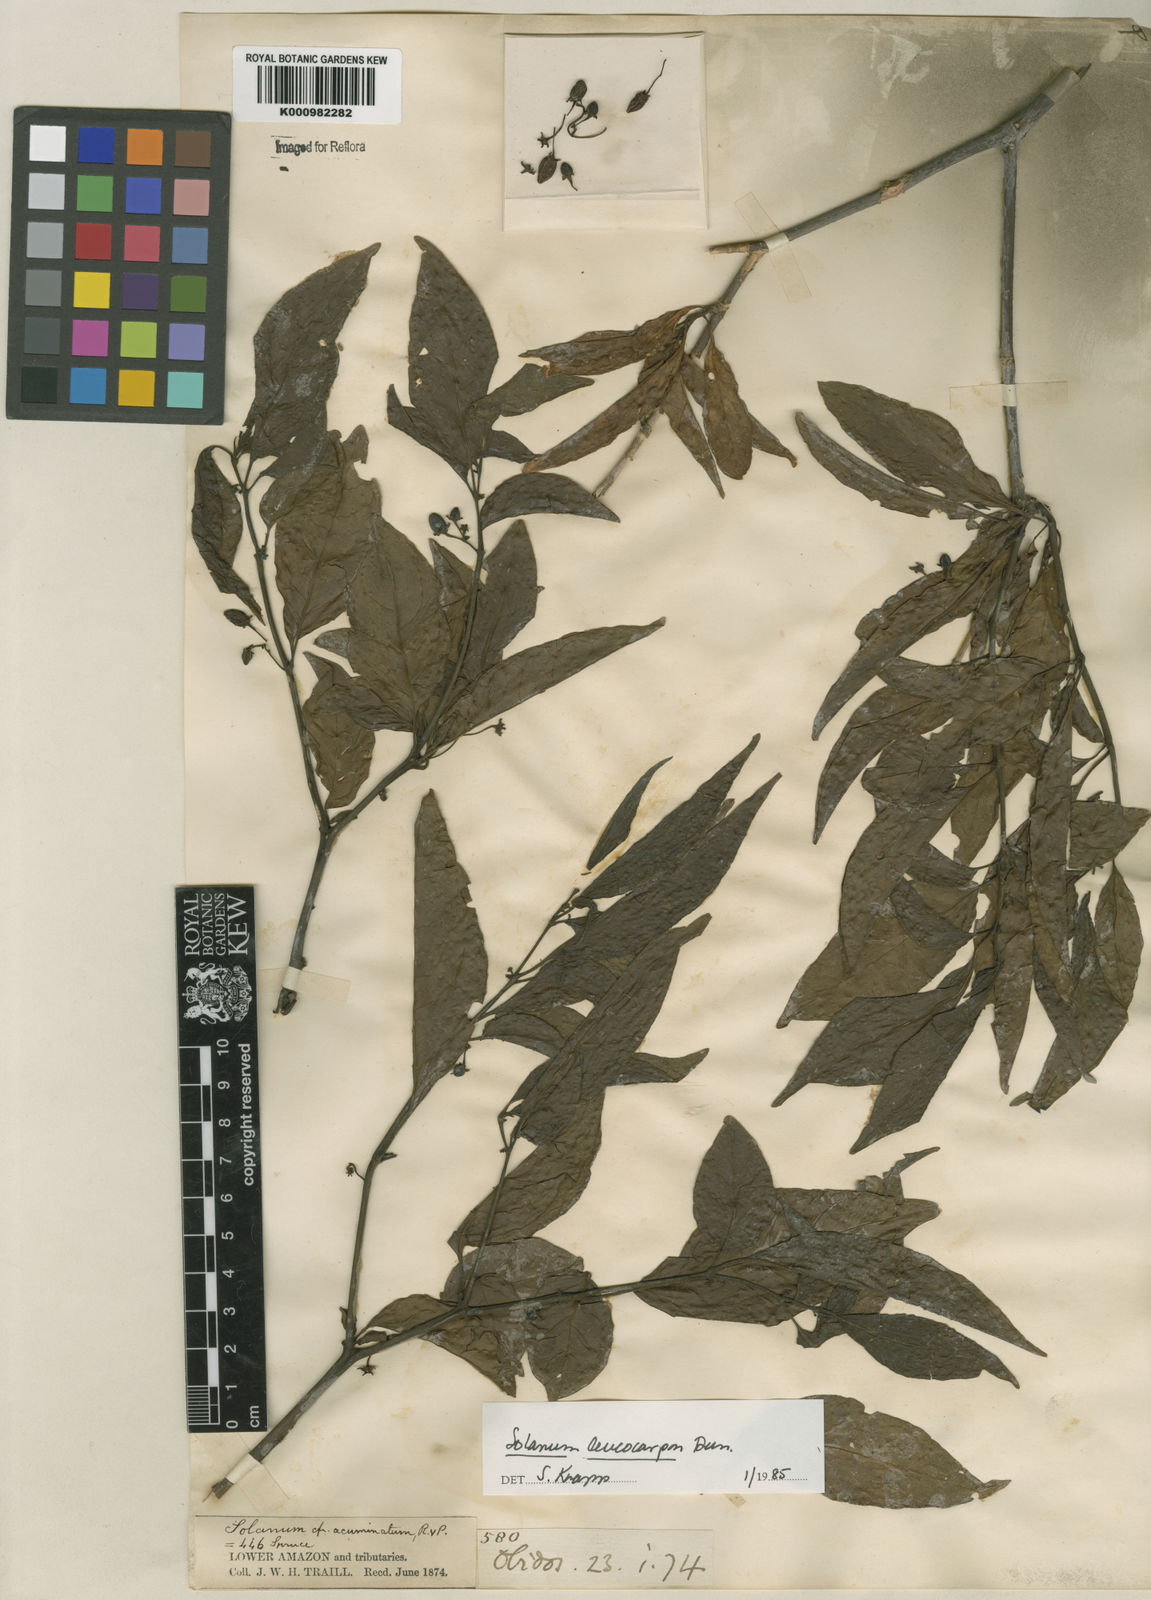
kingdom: Plantae
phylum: Tracheophyta
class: Magnoliopsida
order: Solanales
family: Solanaceae
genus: Solanum
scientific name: Solanum leucocarpon
